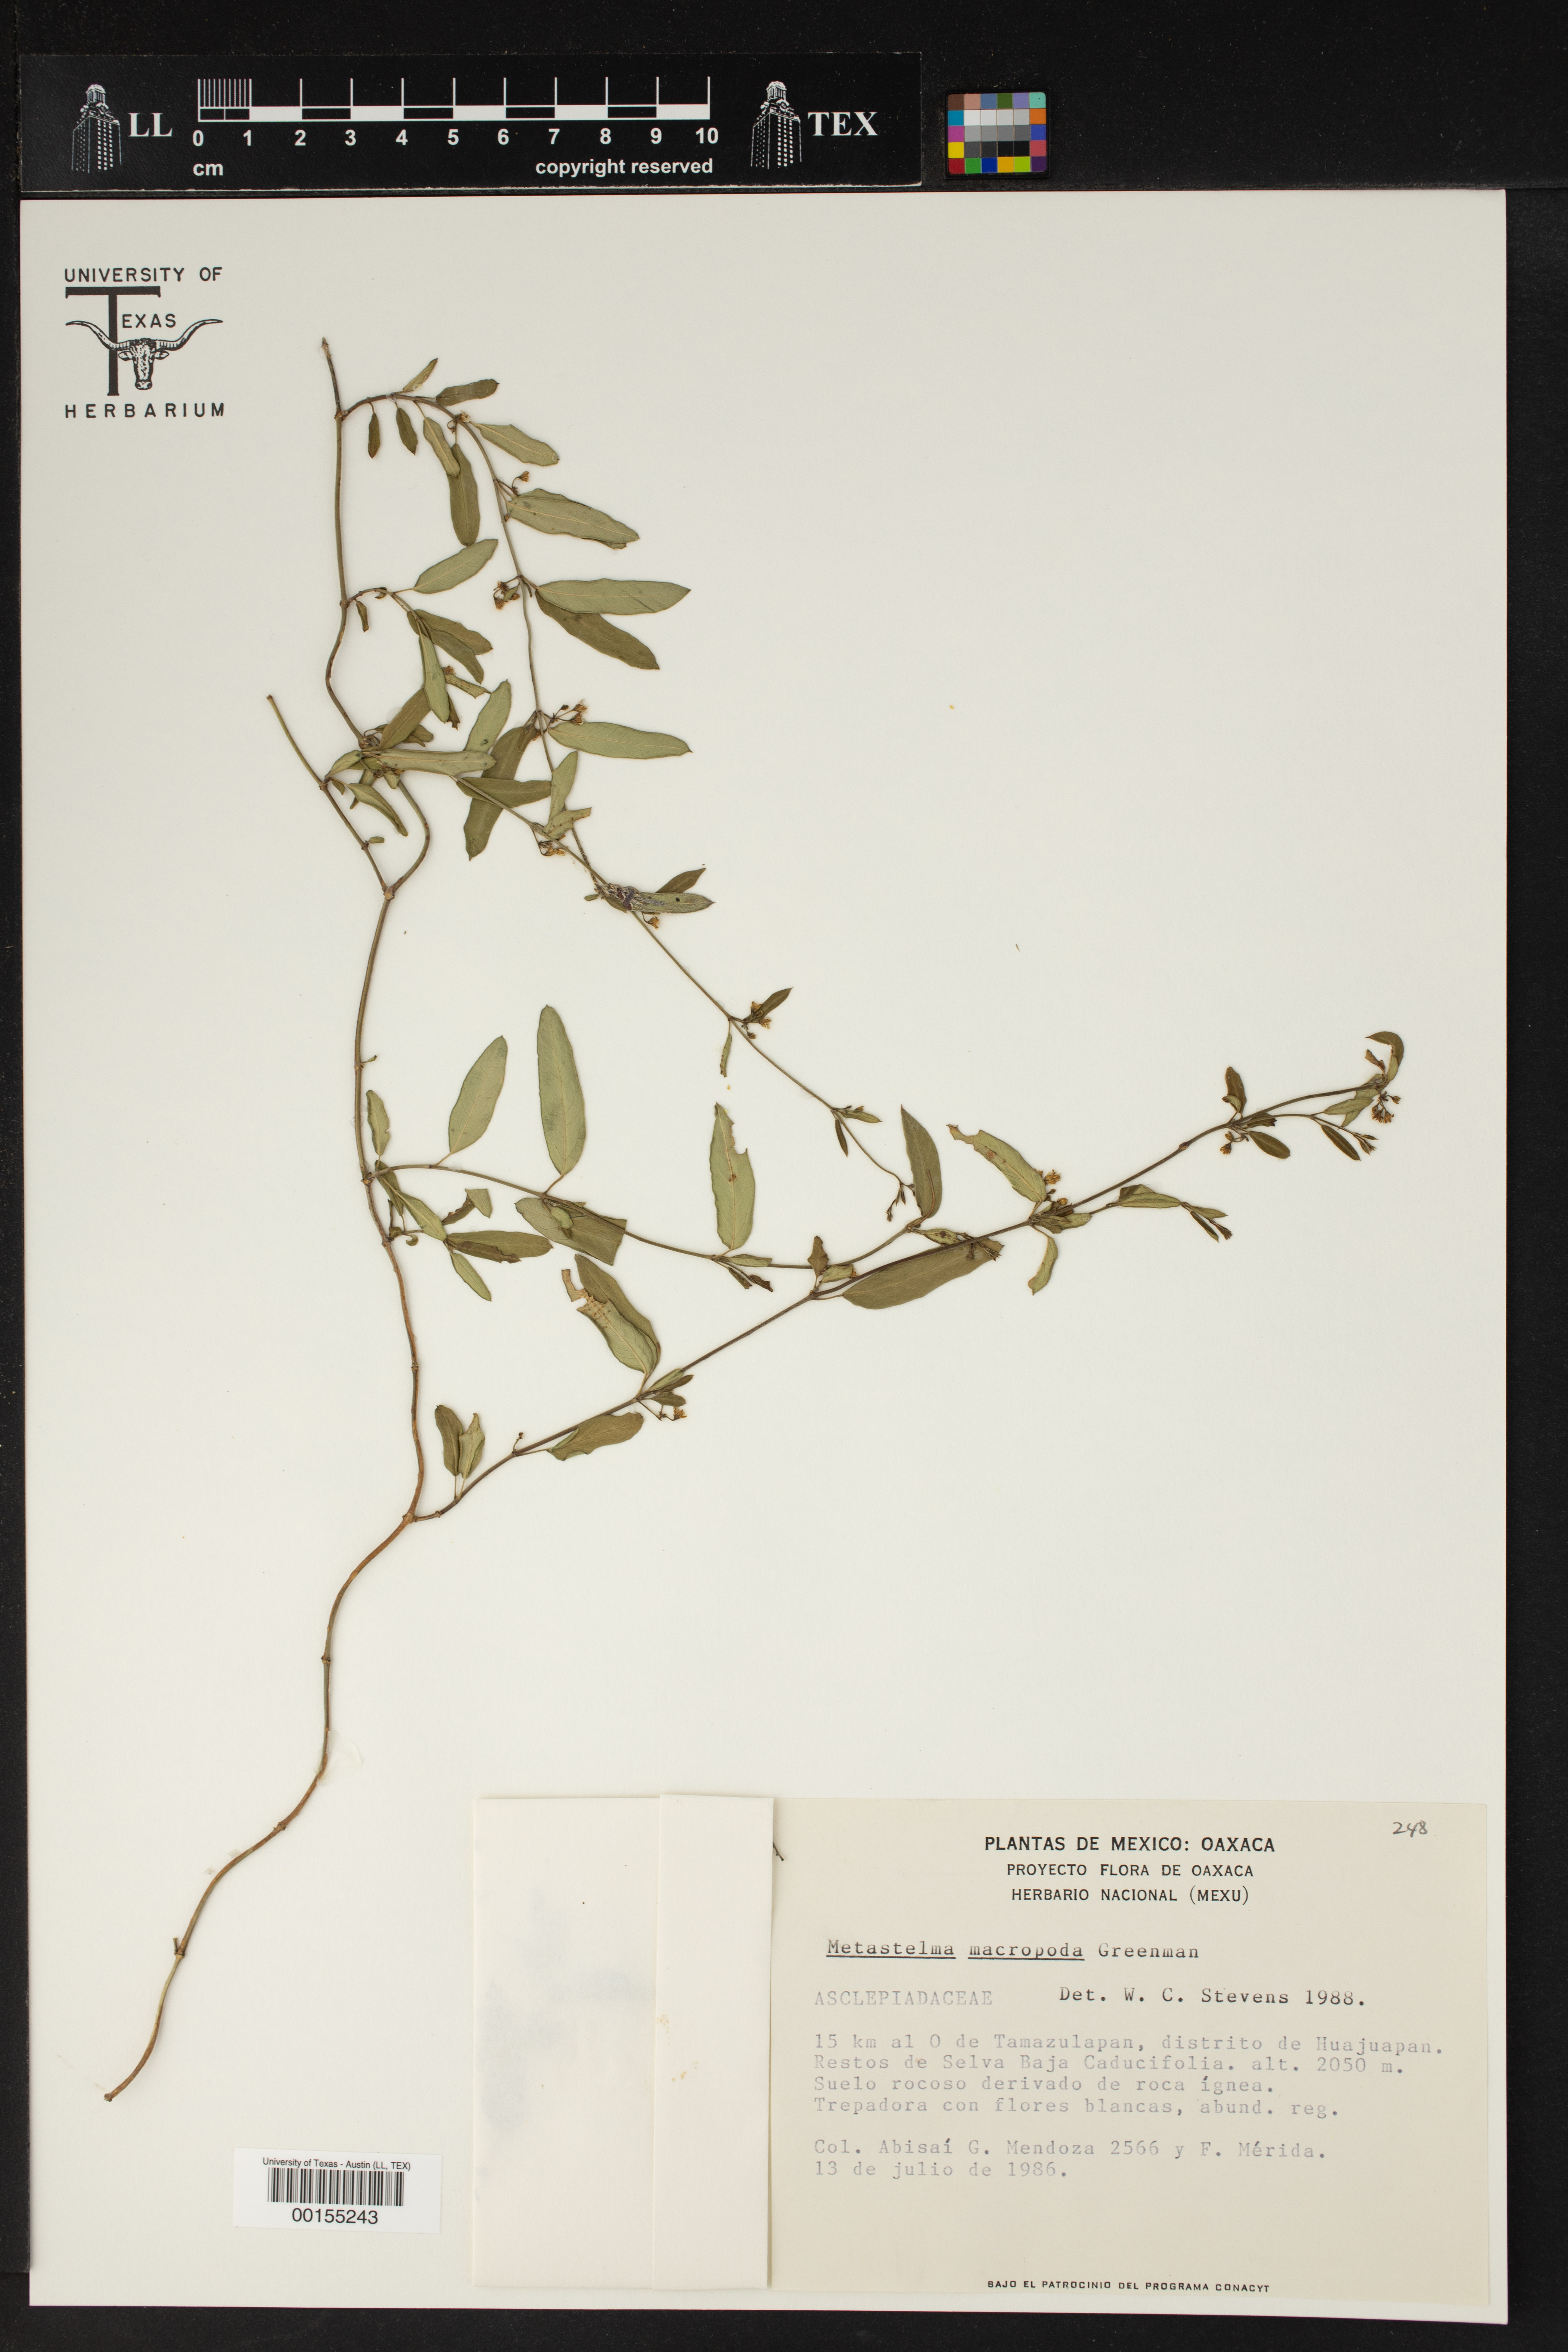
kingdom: Plantae
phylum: Tracheophyta
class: Magnoliopsida
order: Gentianales
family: Apocynaceae
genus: Metastelma
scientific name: Metastelma palmeri
